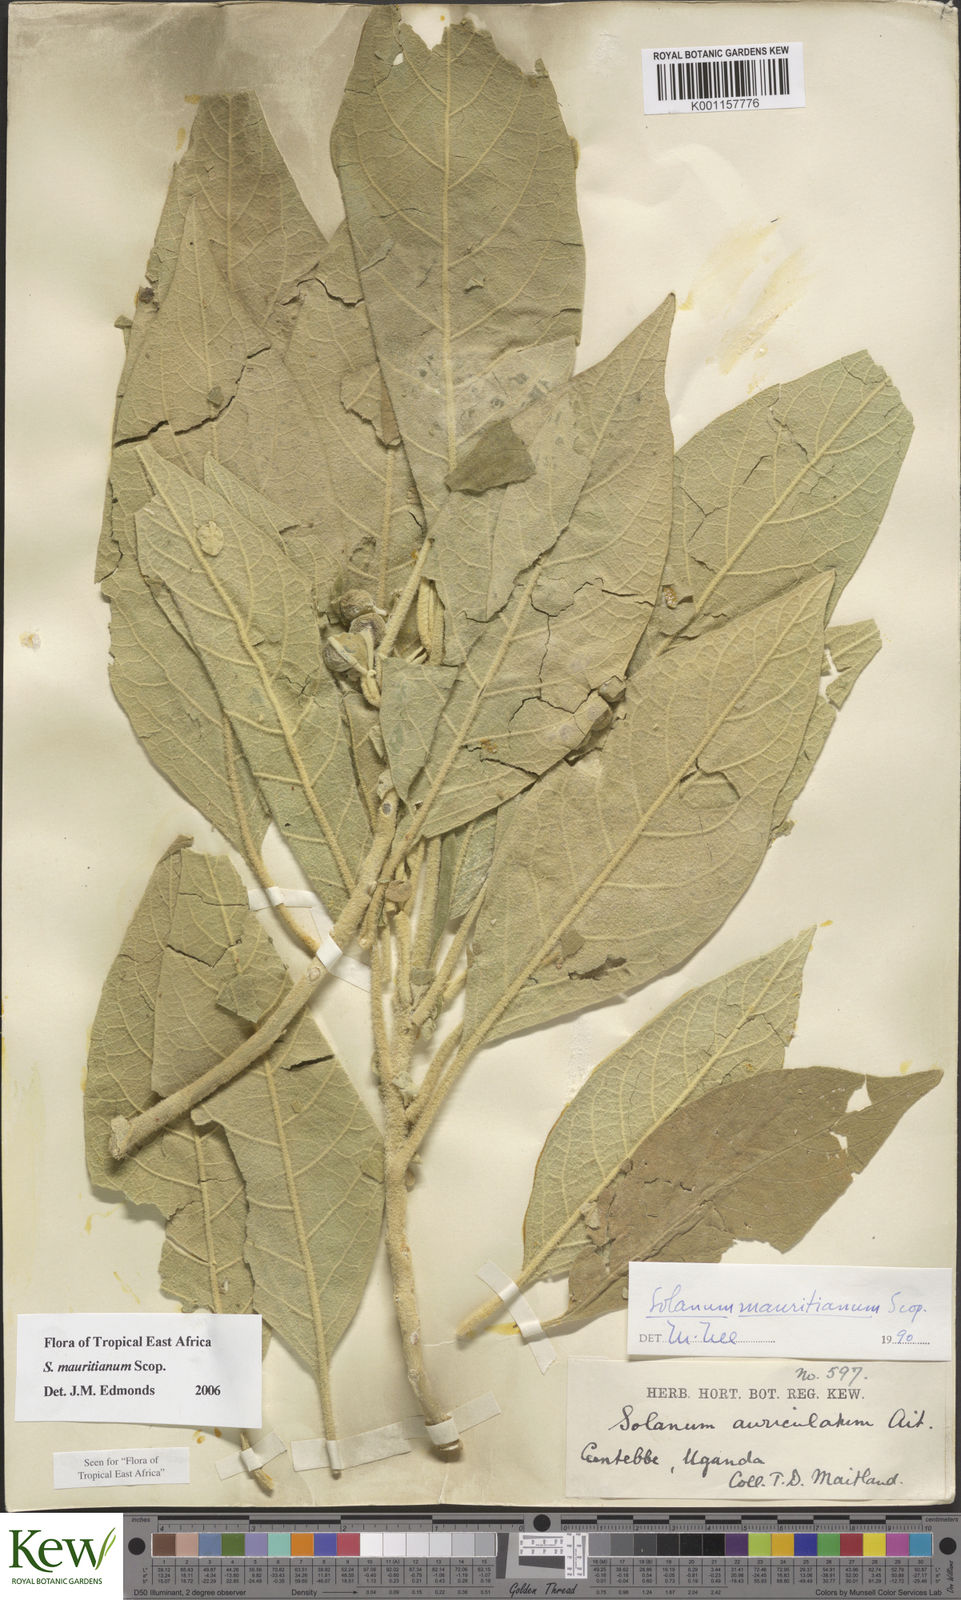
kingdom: Plantae
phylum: Tracheophyta
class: Magnoliopsida
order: Solanales
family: Solanaceae
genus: Solanum
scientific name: Solanum erianthum
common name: Tobacco-tree
